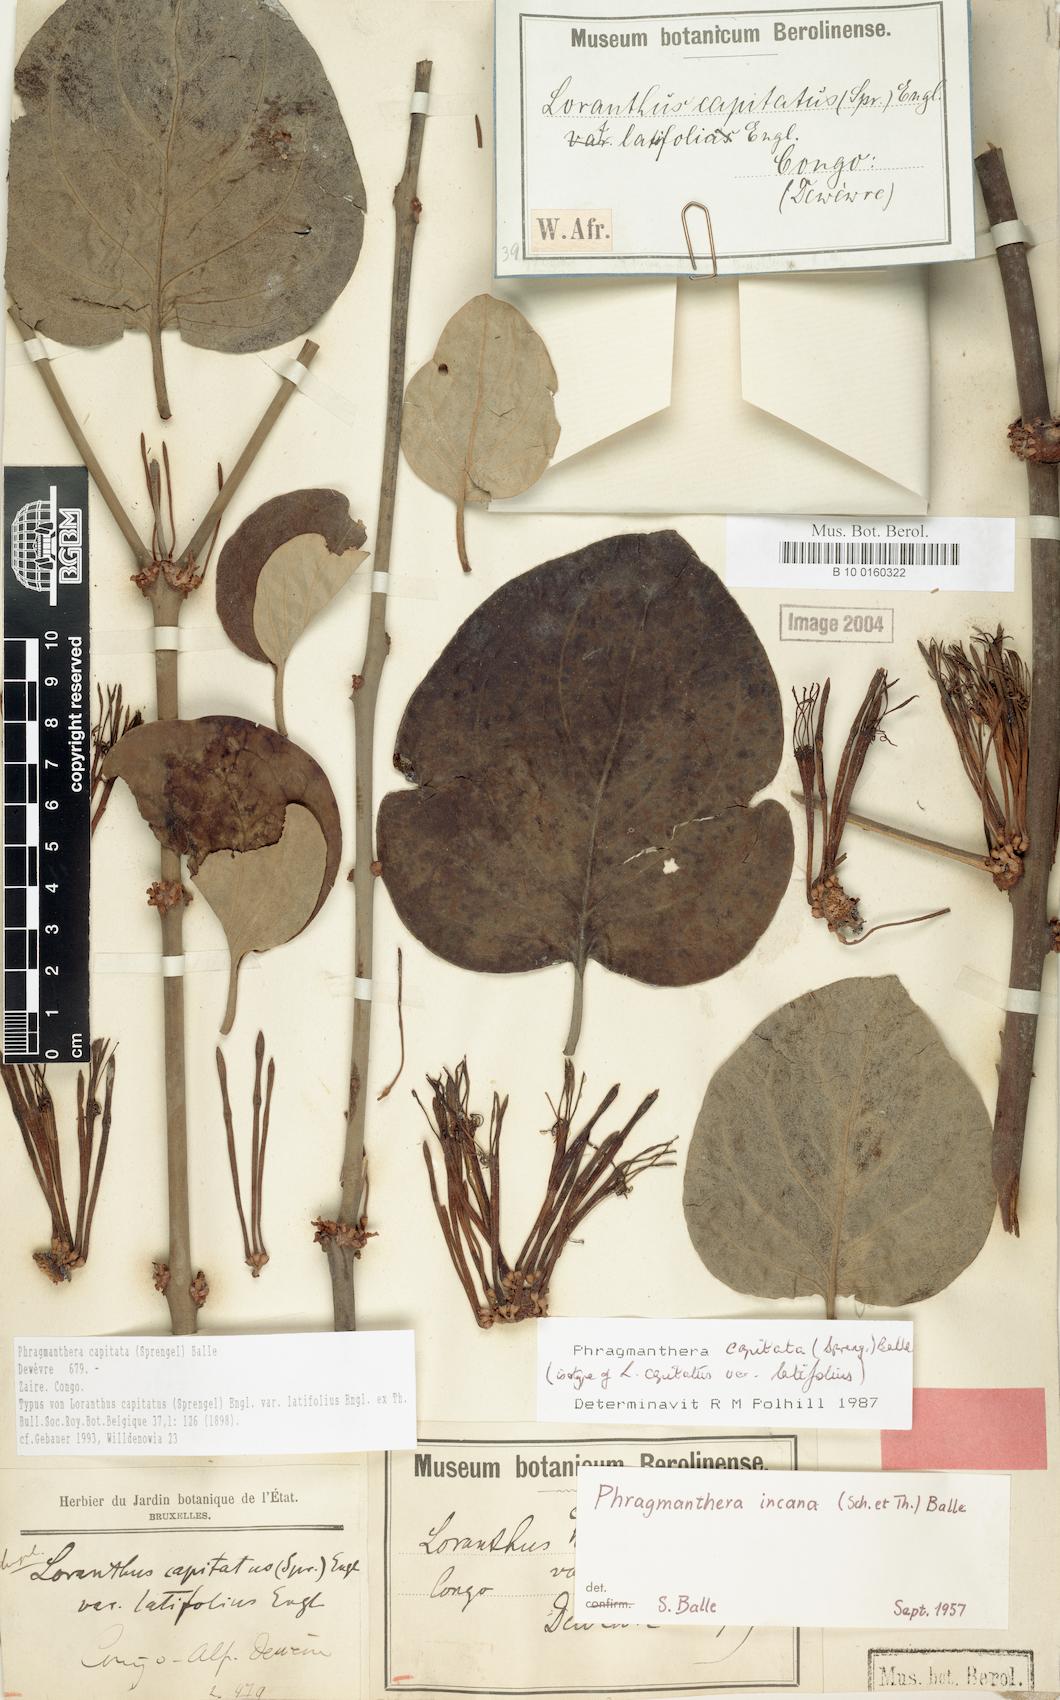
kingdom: Plantae
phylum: Tracheophyta
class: Magnoliopsida
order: Santalales
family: Loranthaceae
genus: Phragmanthera
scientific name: Phragmanthera capitata
